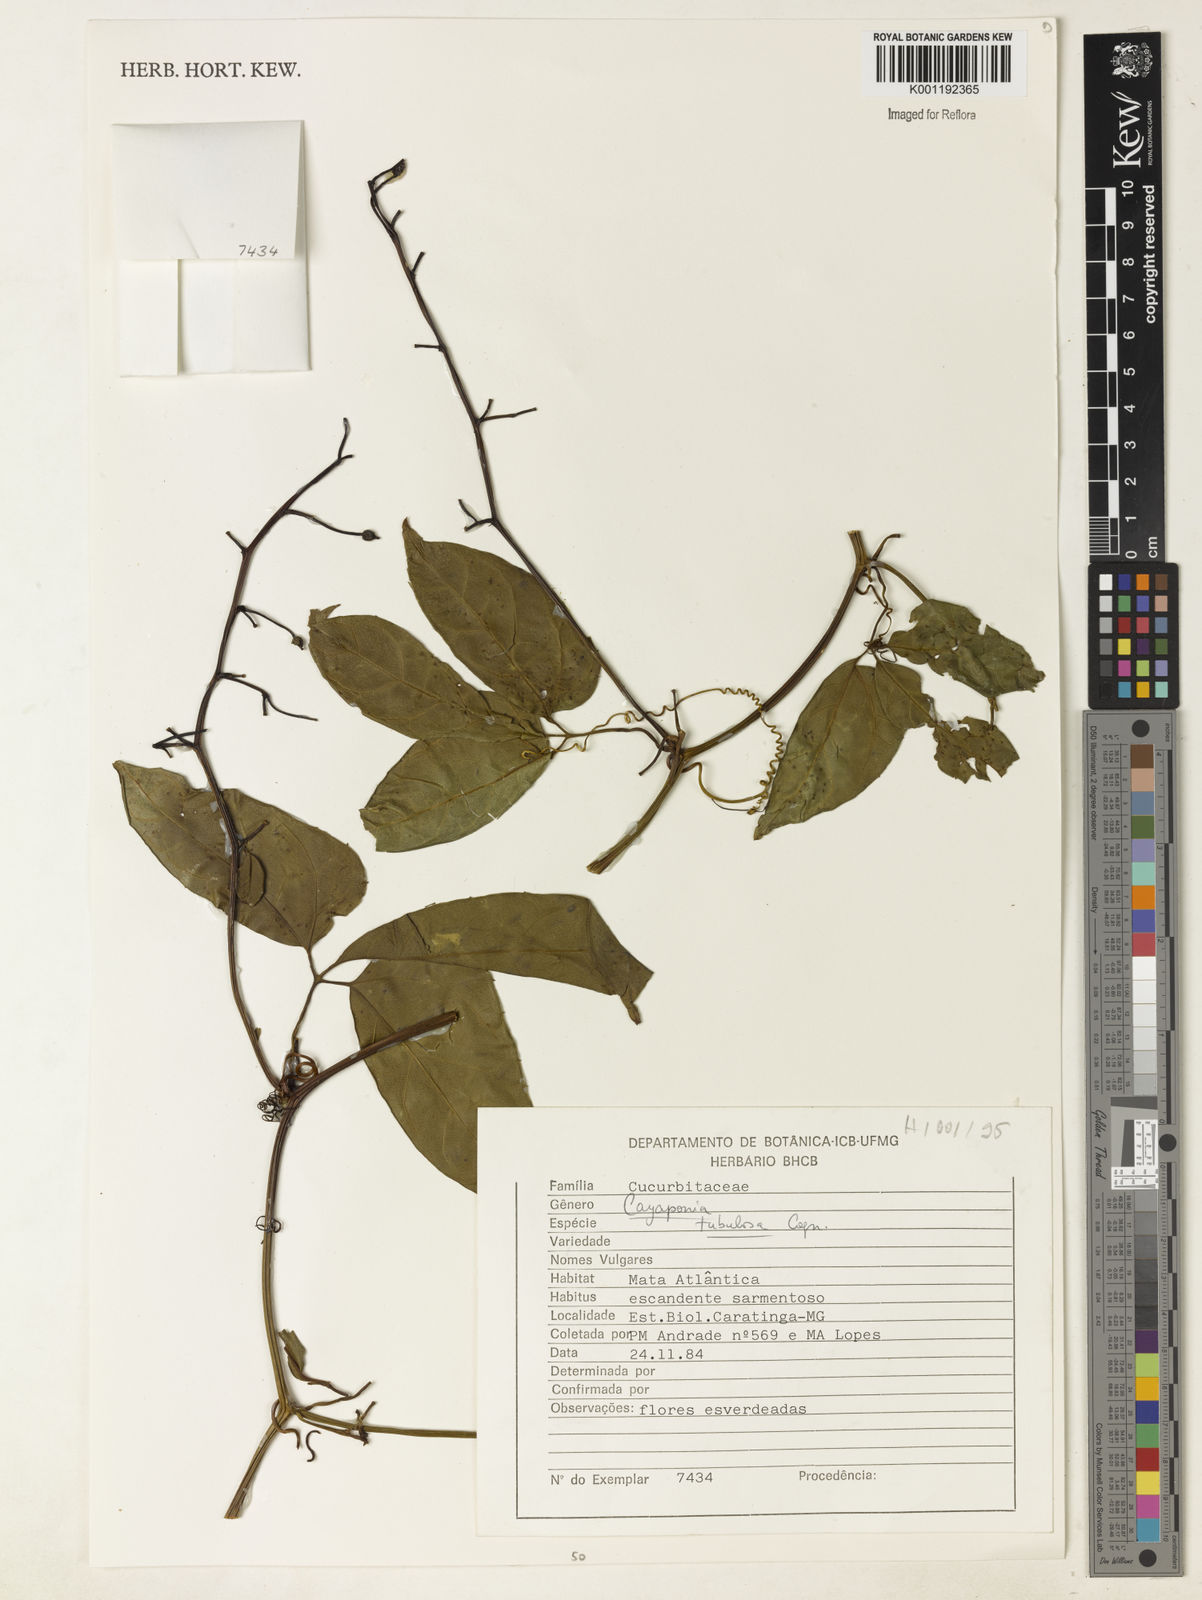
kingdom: Plantae
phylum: Tracheophyta
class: Magnoliopsida
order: Cucurbitales
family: Cucurbitaceae
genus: Cayaponia
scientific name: Cayaponia tubulosa
